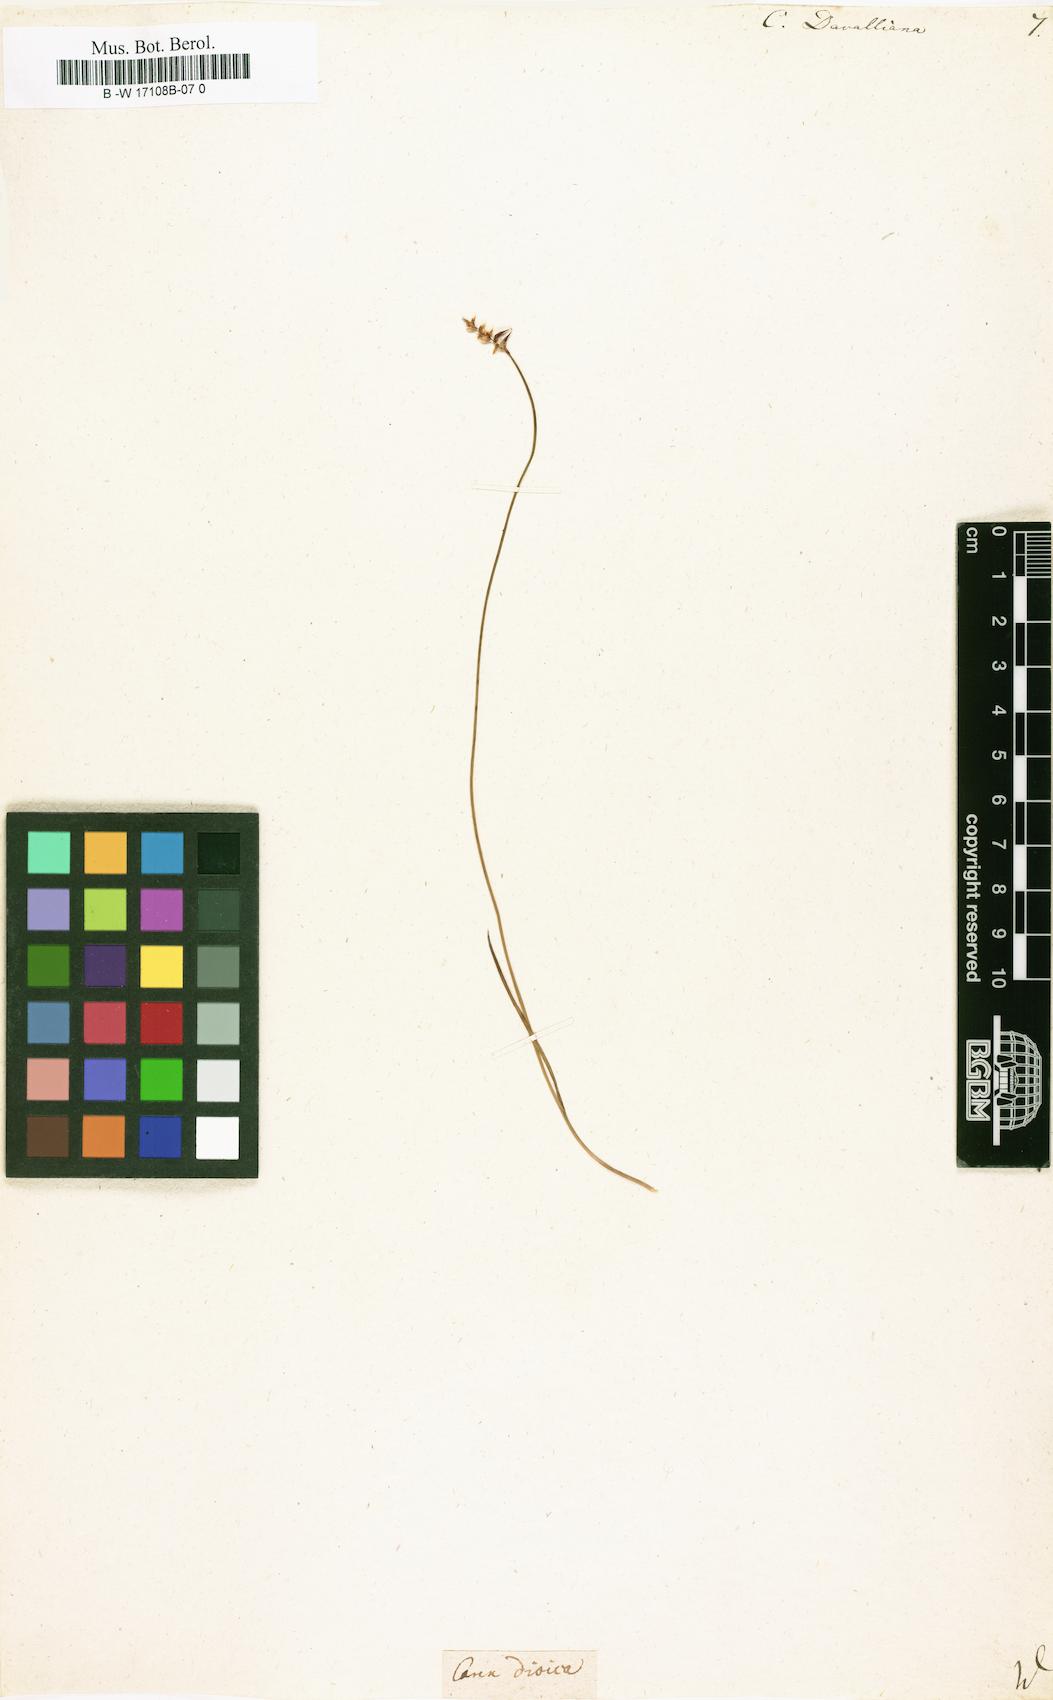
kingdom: Plantae
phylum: Tracheophyta
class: Liliopsida
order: Poales
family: Cyperaceae
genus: Carex
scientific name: Carex davalliana
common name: Davall's sedge
